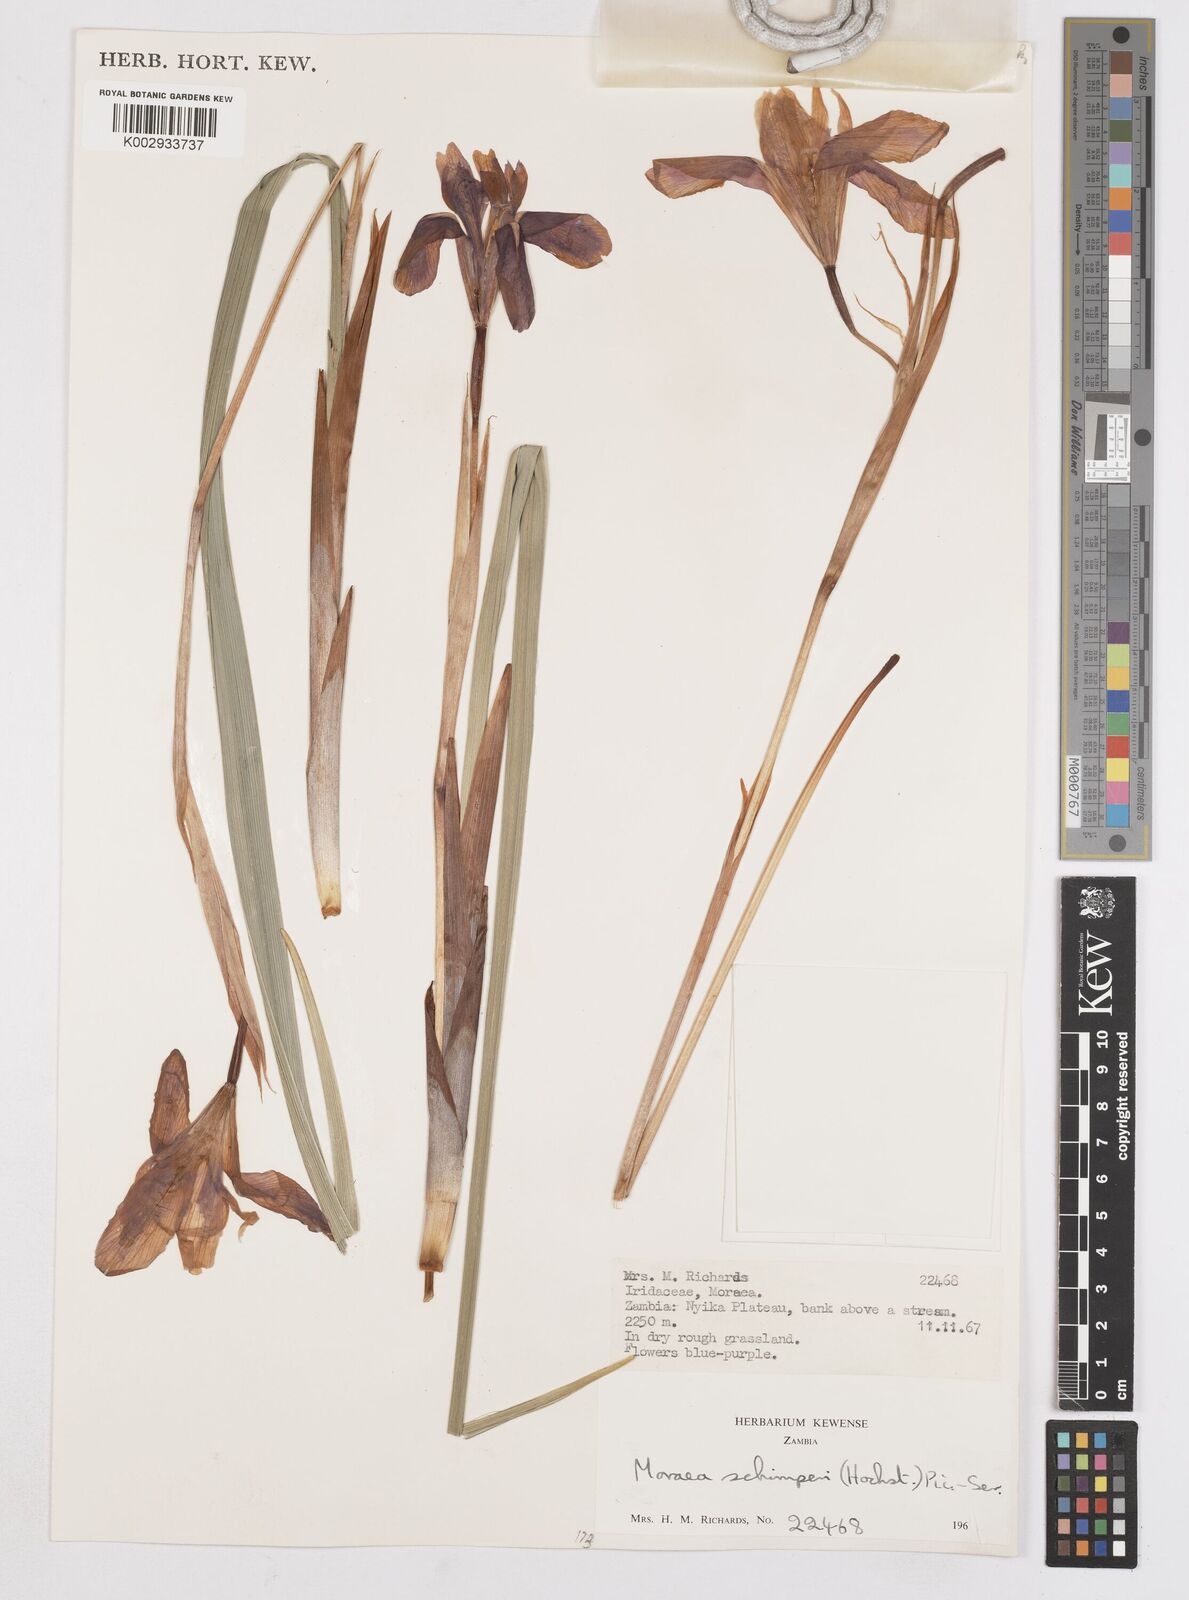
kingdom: Plantae
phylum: Tracheophyta
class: Liliopsida
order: Asparagales
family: Iridaceae
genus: Moraea
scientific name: Moraea schimperi
